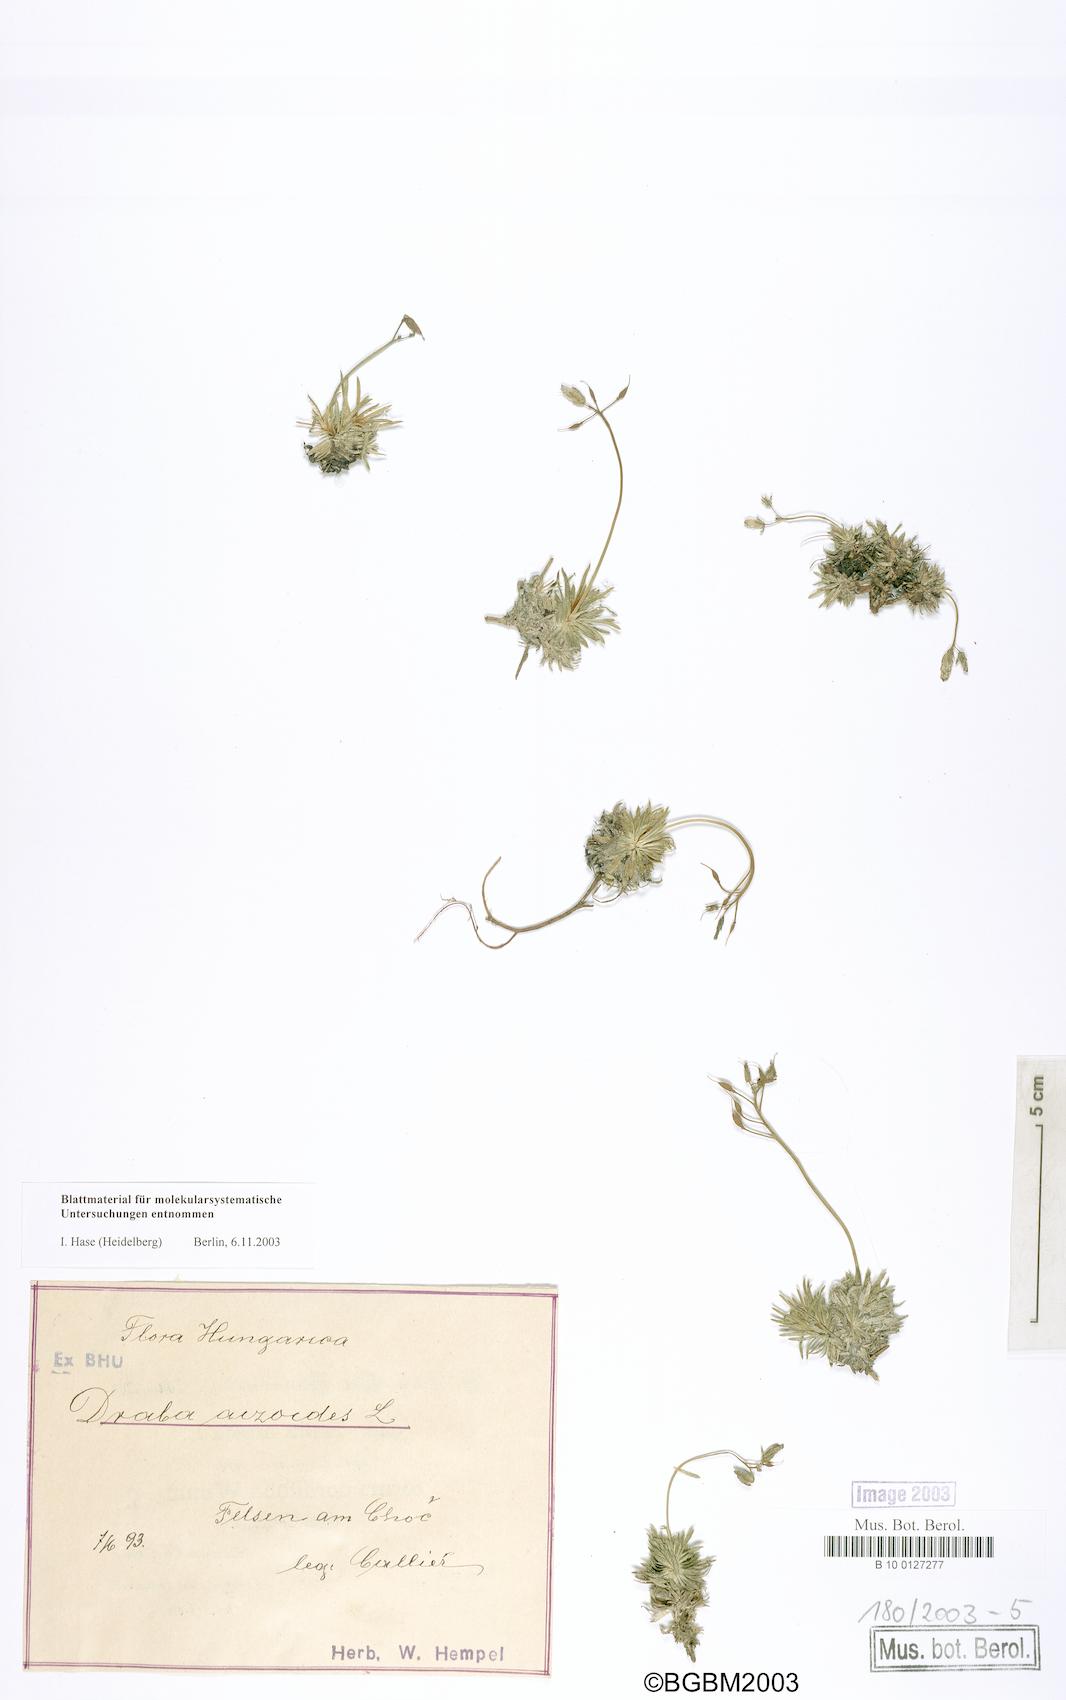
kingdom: Plantae
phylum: Tracheophyta
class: Magnoliopsida
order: Brassicales
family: Brassicaceae
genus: Draba
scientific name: Draba aizoides
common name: Yellow whitlowgrass
